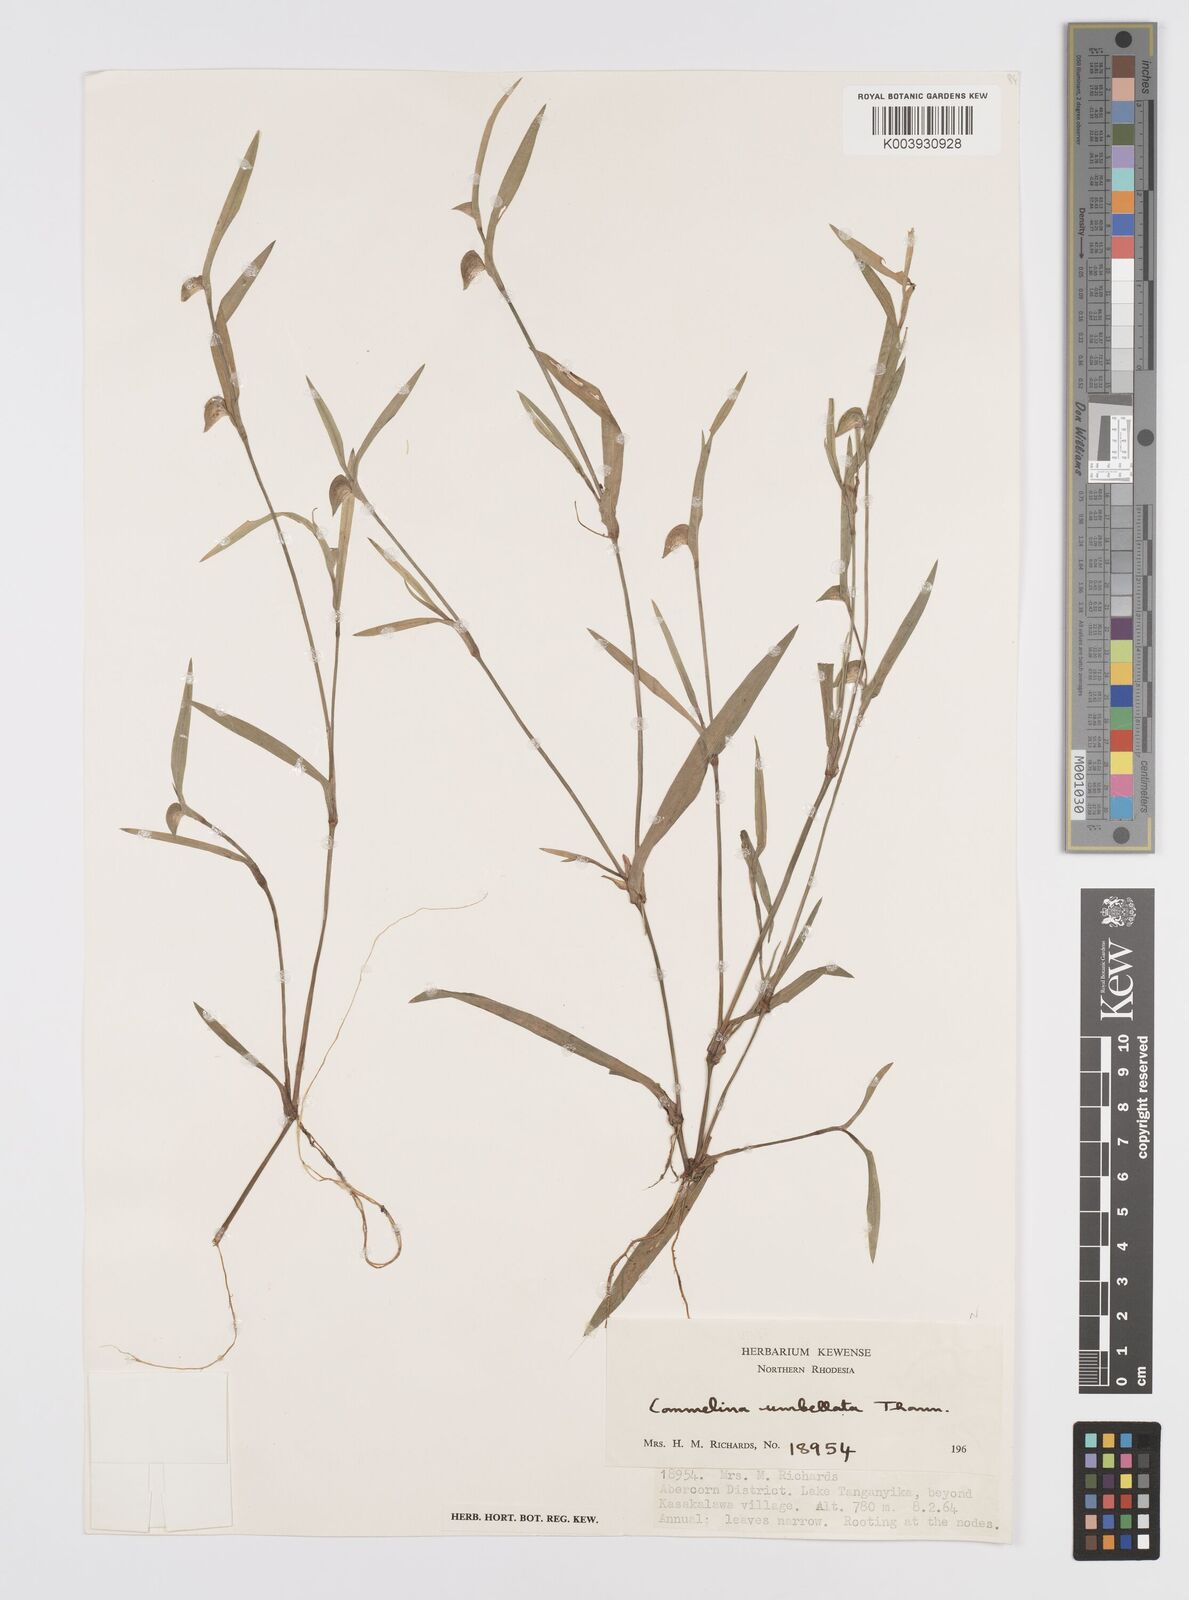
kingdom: Plantae
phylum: Tracheophyta
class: Liliopsida
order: Commelinales
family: Commelinaceae
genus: Commelina
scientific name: Commelina nigritana
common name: African dayflower
